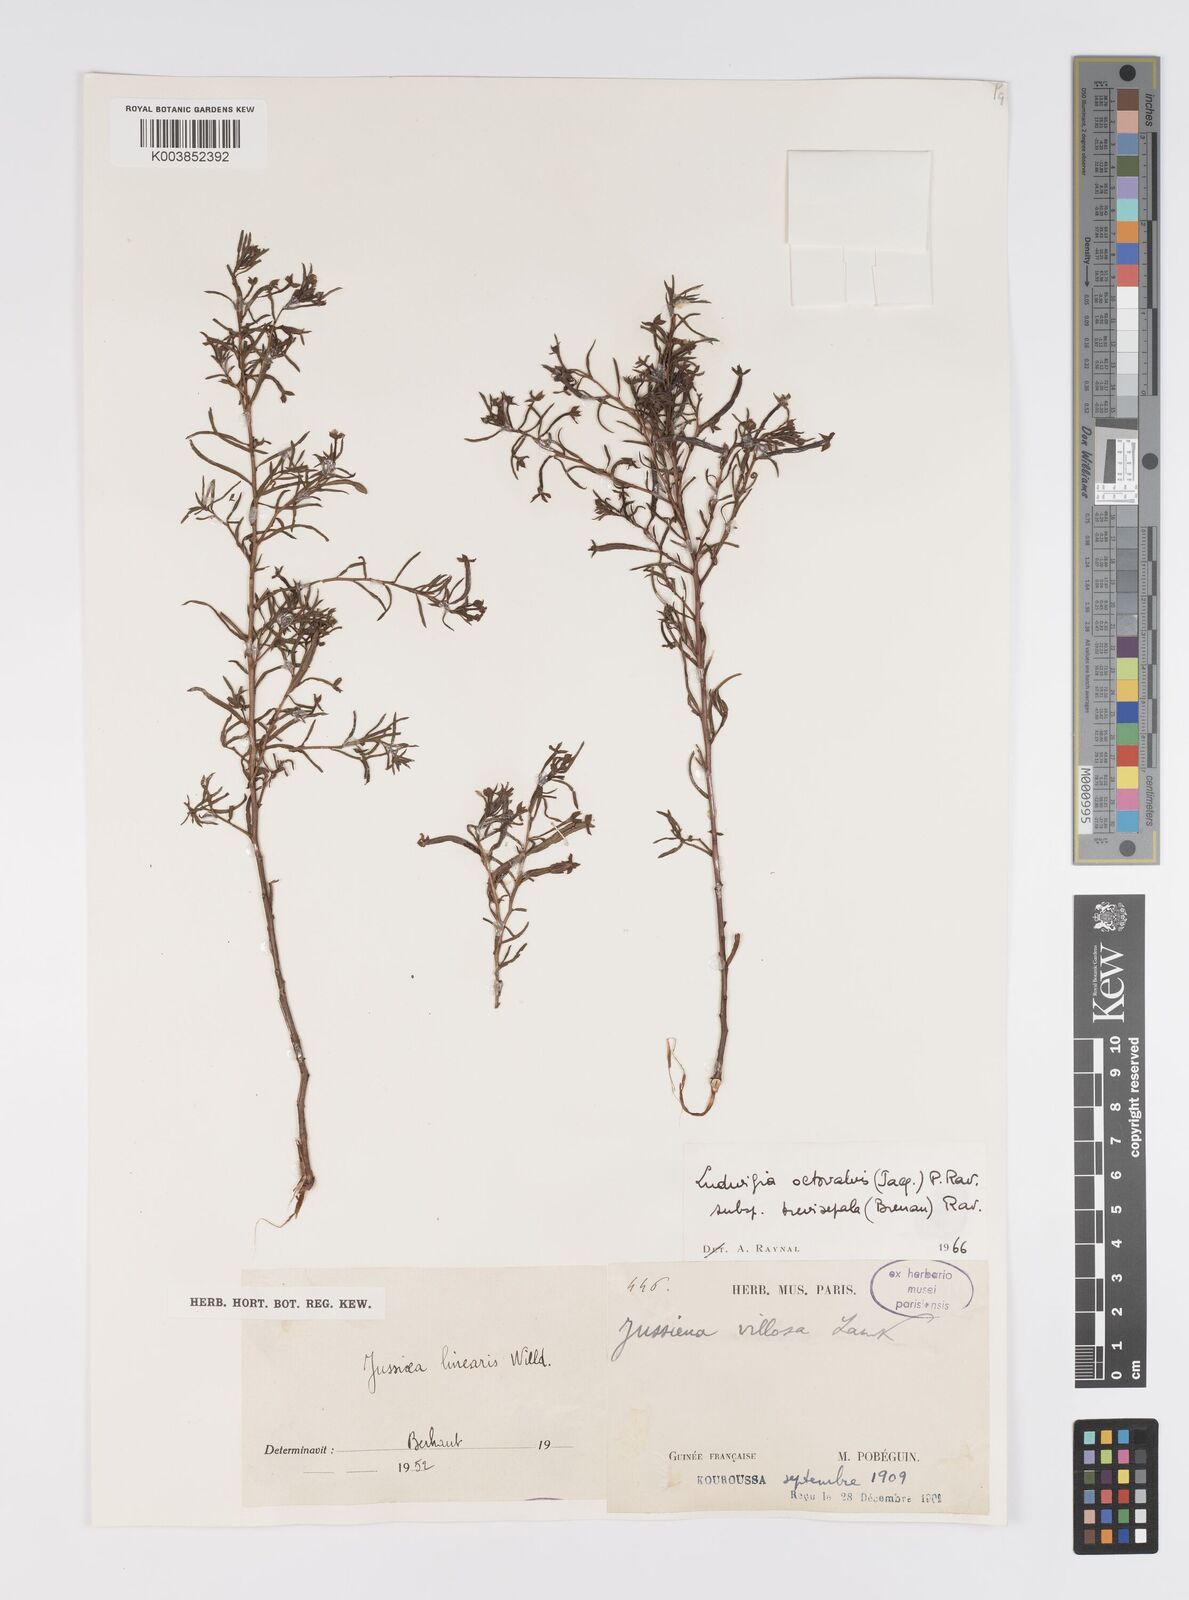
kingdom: Plantae
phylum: Tracheophyta
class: Magnoliopsida
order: Myrtales
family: Onagraceae
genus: Ludwigia
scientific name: Ludwigia suffruticosa
